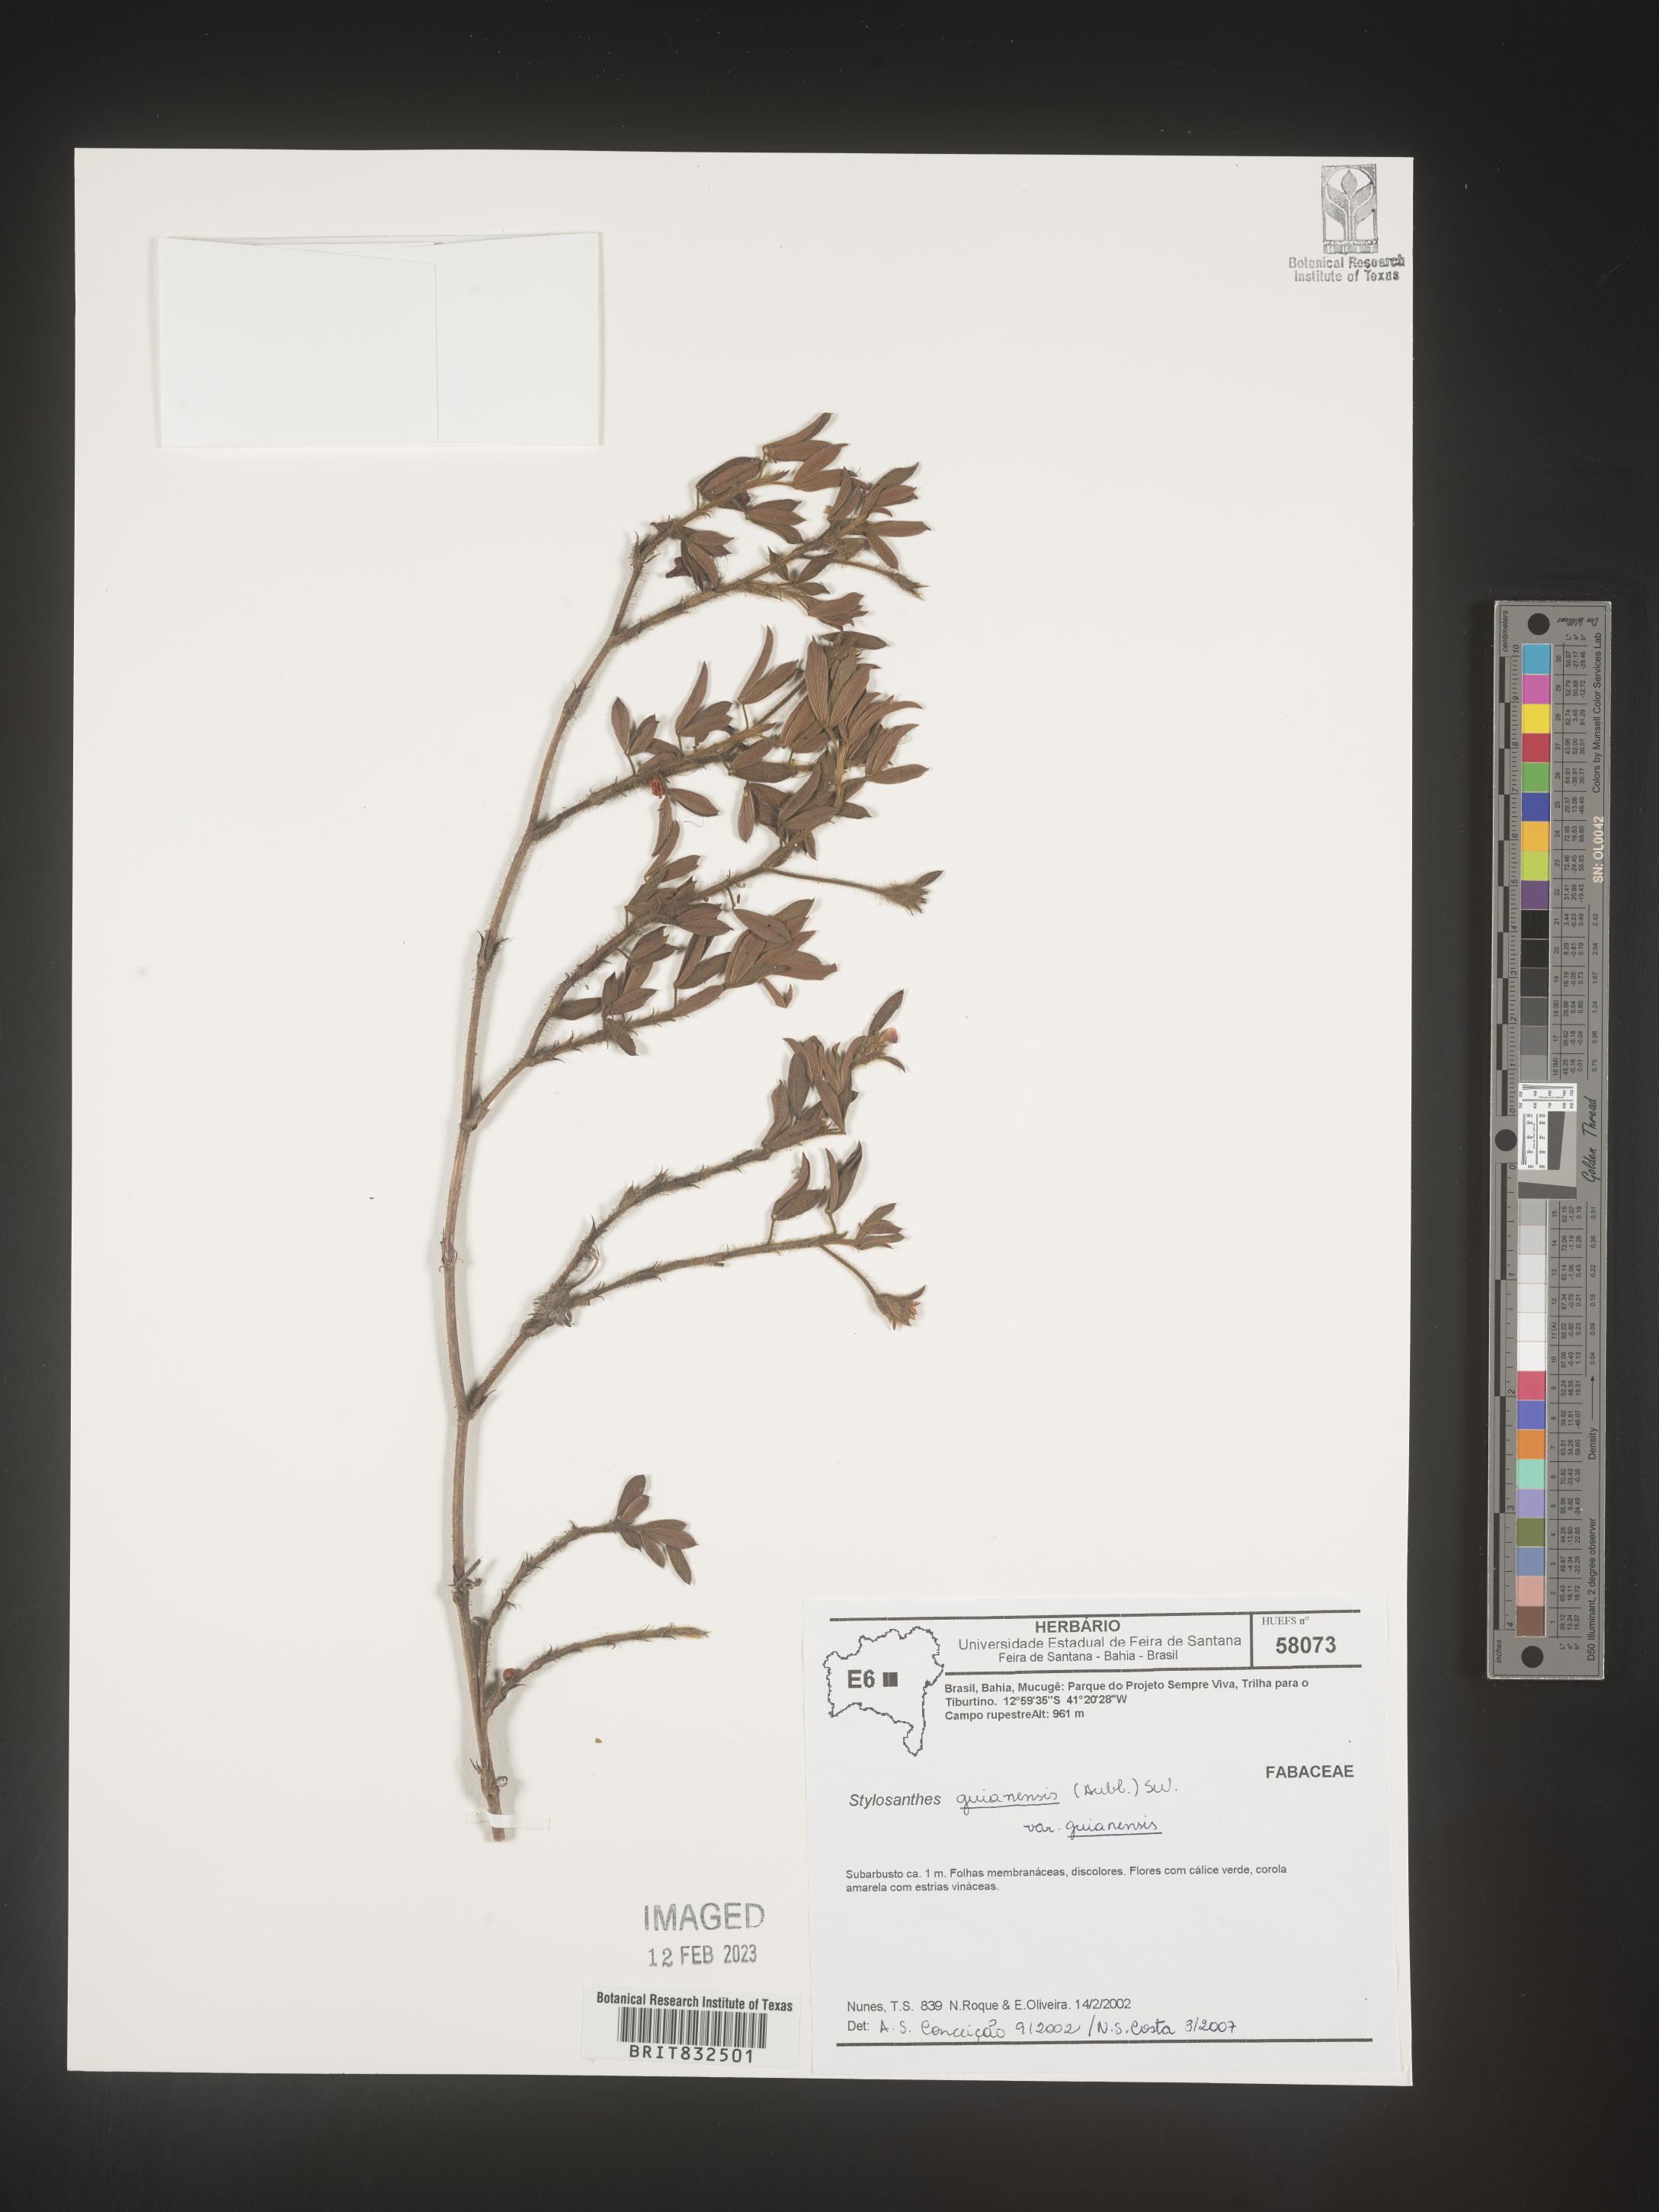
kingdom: Plantae
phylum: Tracheophyta
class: Magnoliopsida
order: Fabales
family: Fabaceae
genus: Stylosanthes
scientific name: Stylosanthes
